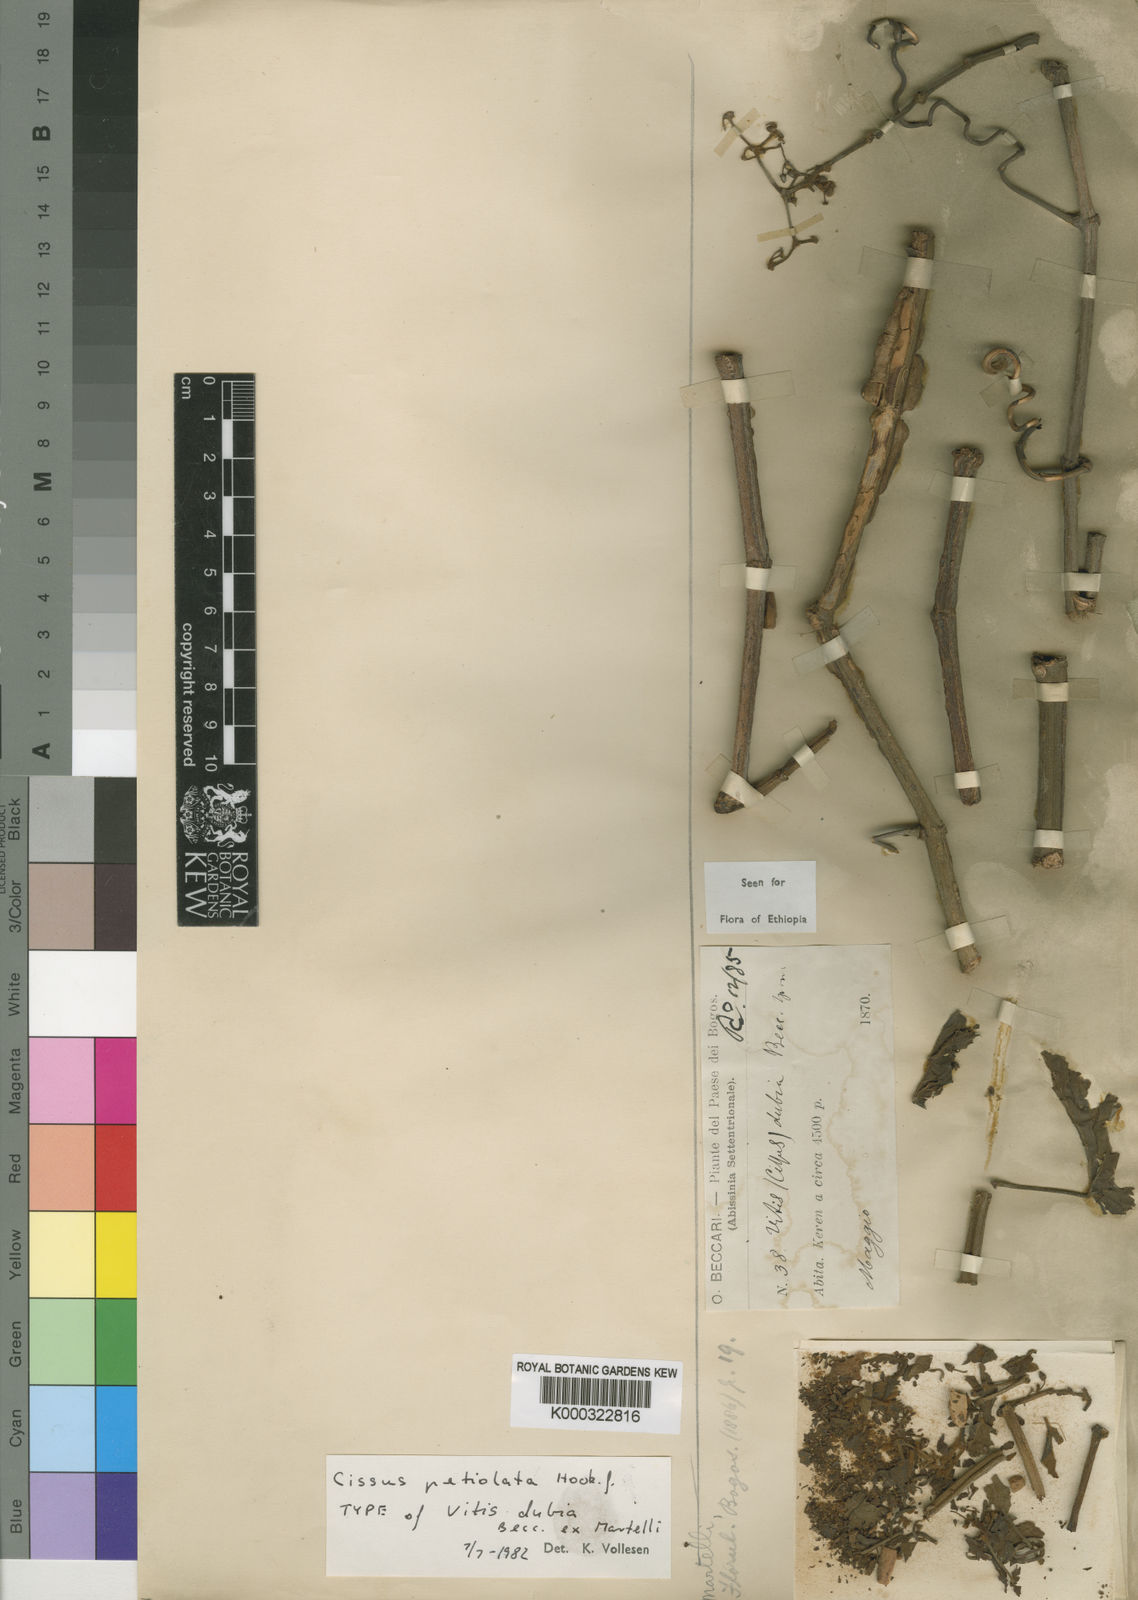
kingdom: Plantae
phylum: Tracheophyta
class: Magnoliopsida
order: Vitales
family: Vitaceae
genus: Cissus
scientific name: Cissus petiolata
